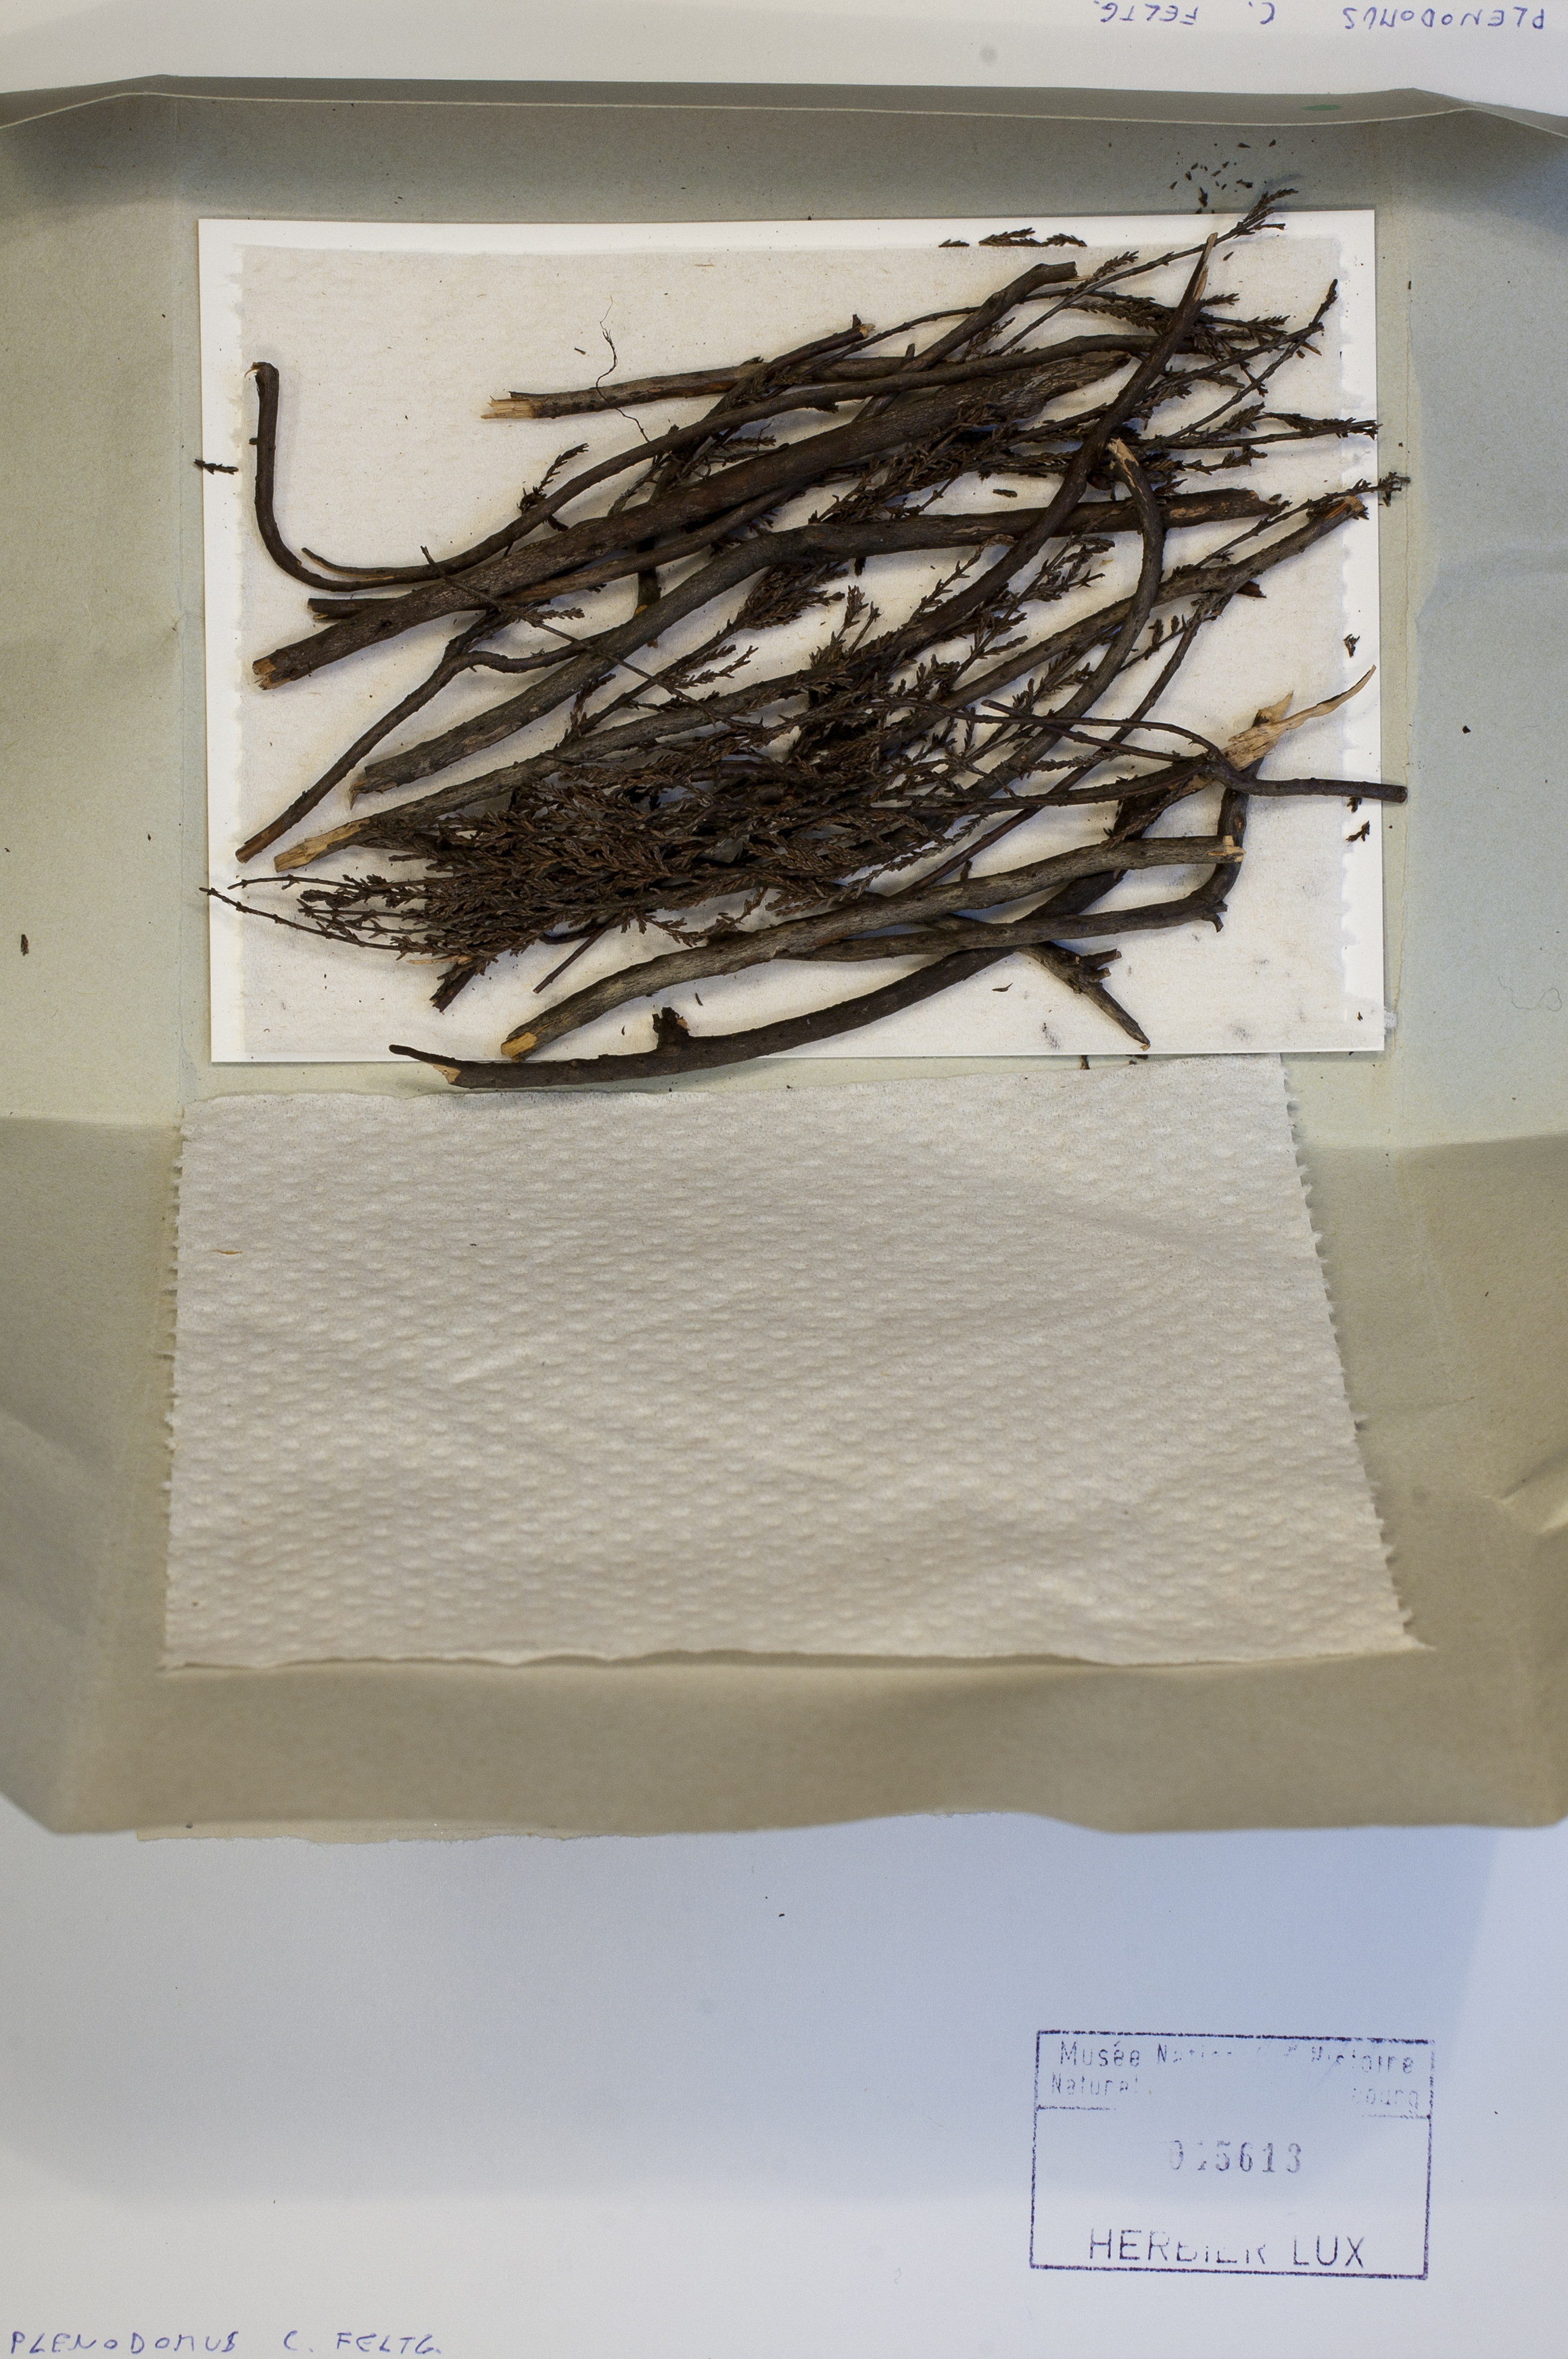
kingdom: Fungi
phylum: Ascomycota
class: Dothideomycetes
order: Pleosporales
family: Leptosphaeriaceae
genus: Plenodomus
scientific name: Plenodomus
